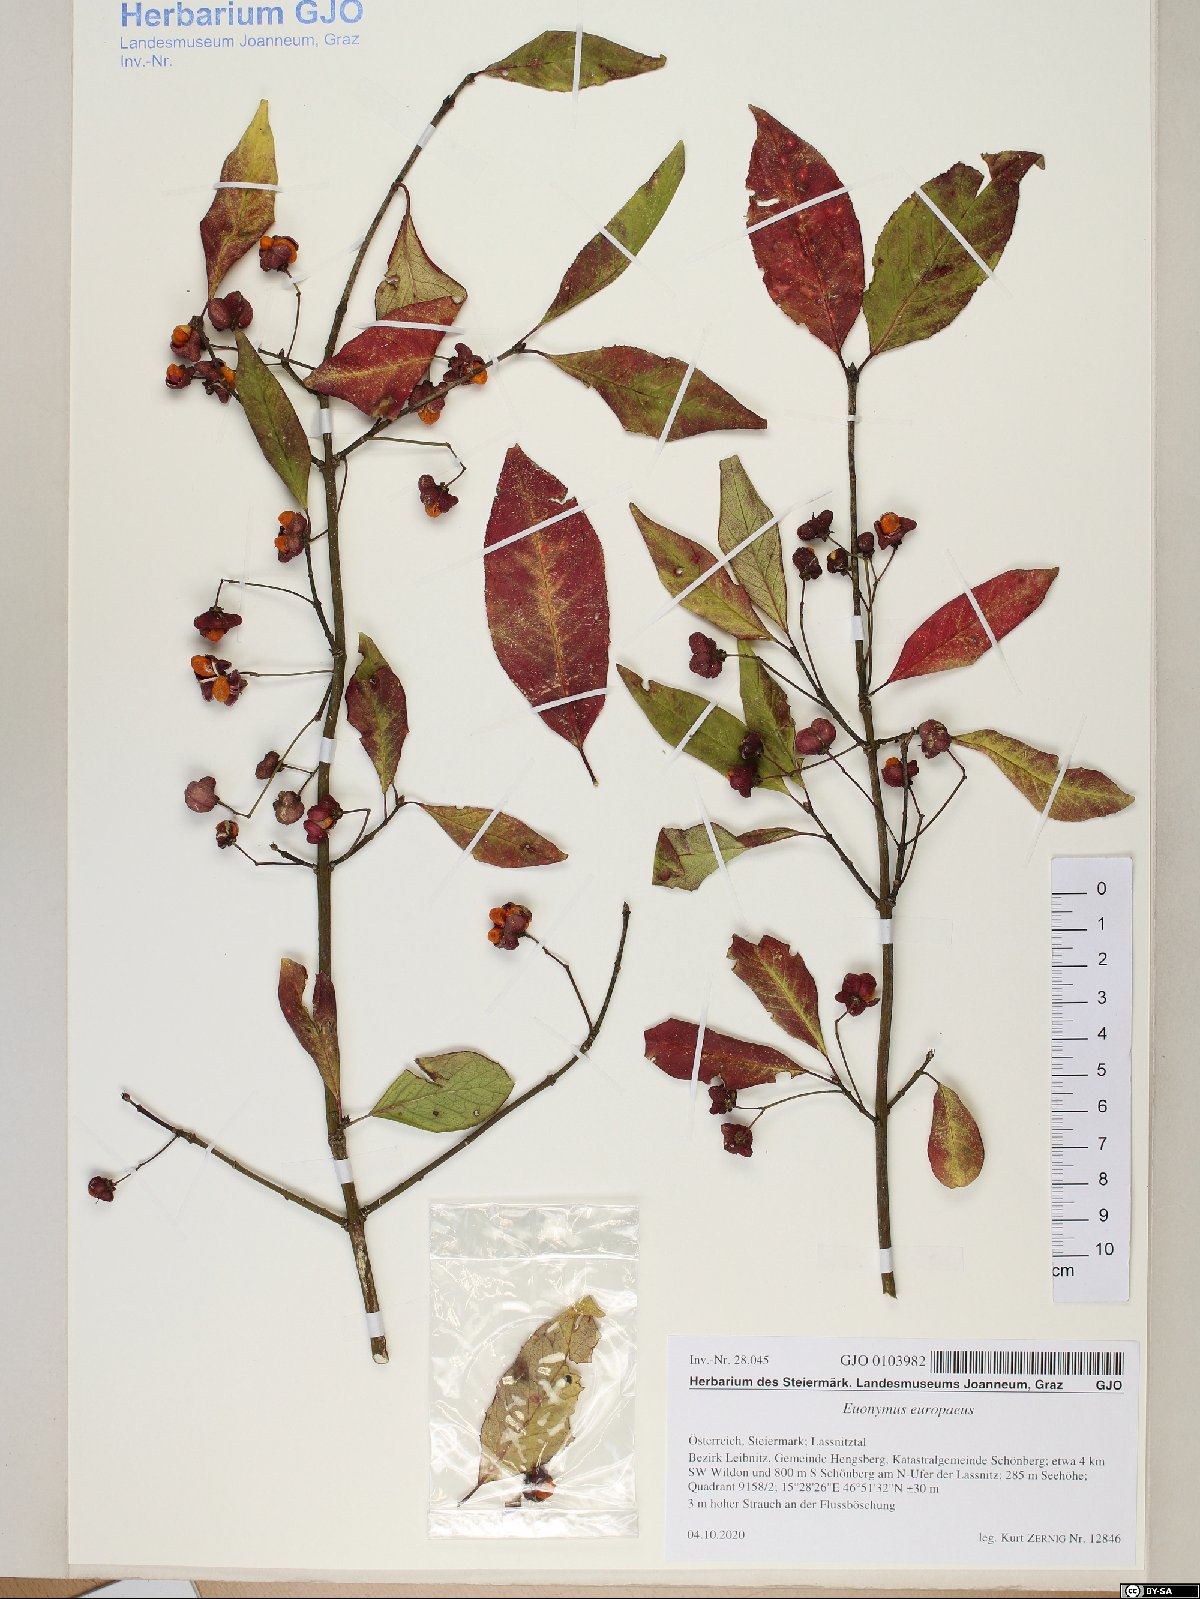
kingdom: Plantae
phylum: Tracheophyta
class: Magnoliopsida
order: Celastrales
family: Celastraceae
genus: Euonymus
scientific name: Euonymus europaeus
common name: Spindle
